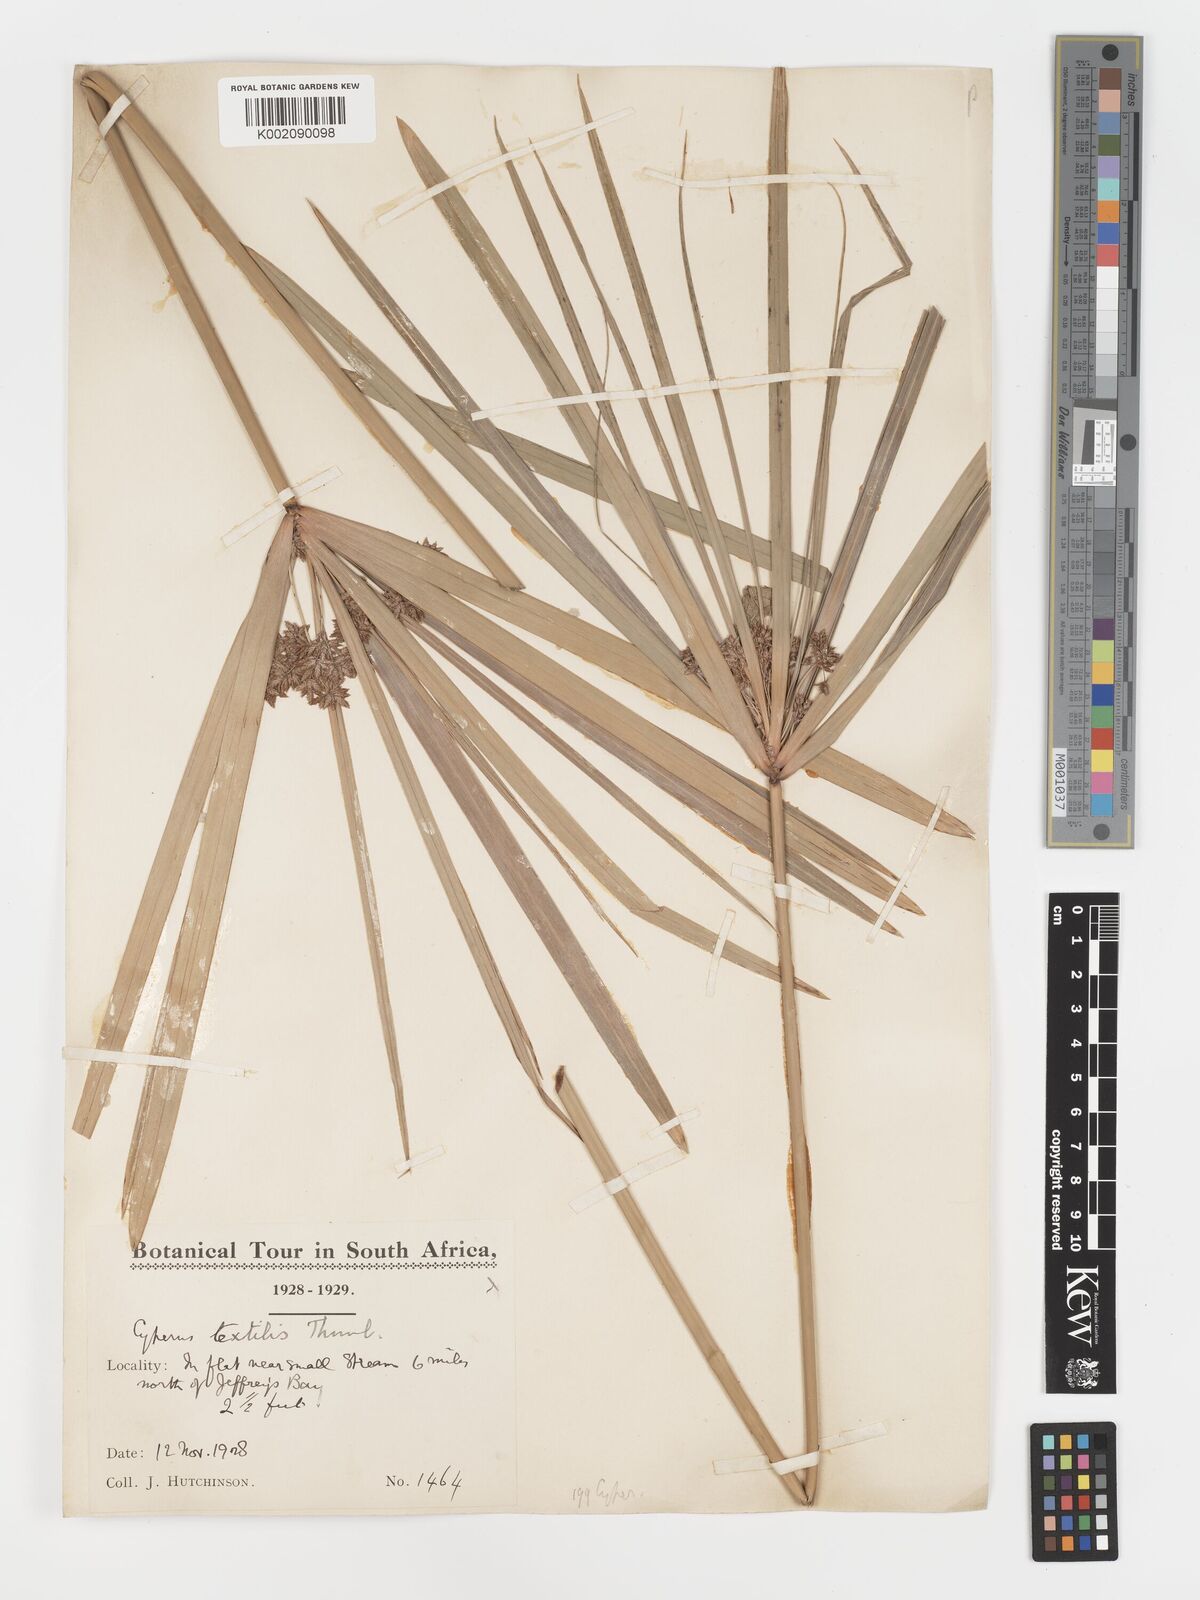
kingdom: Plantae
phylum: Tracheophyta
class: Liliopsida
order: Poales
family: Cyperaceae
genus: Cyperus
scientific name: Cyperus alternifolius
